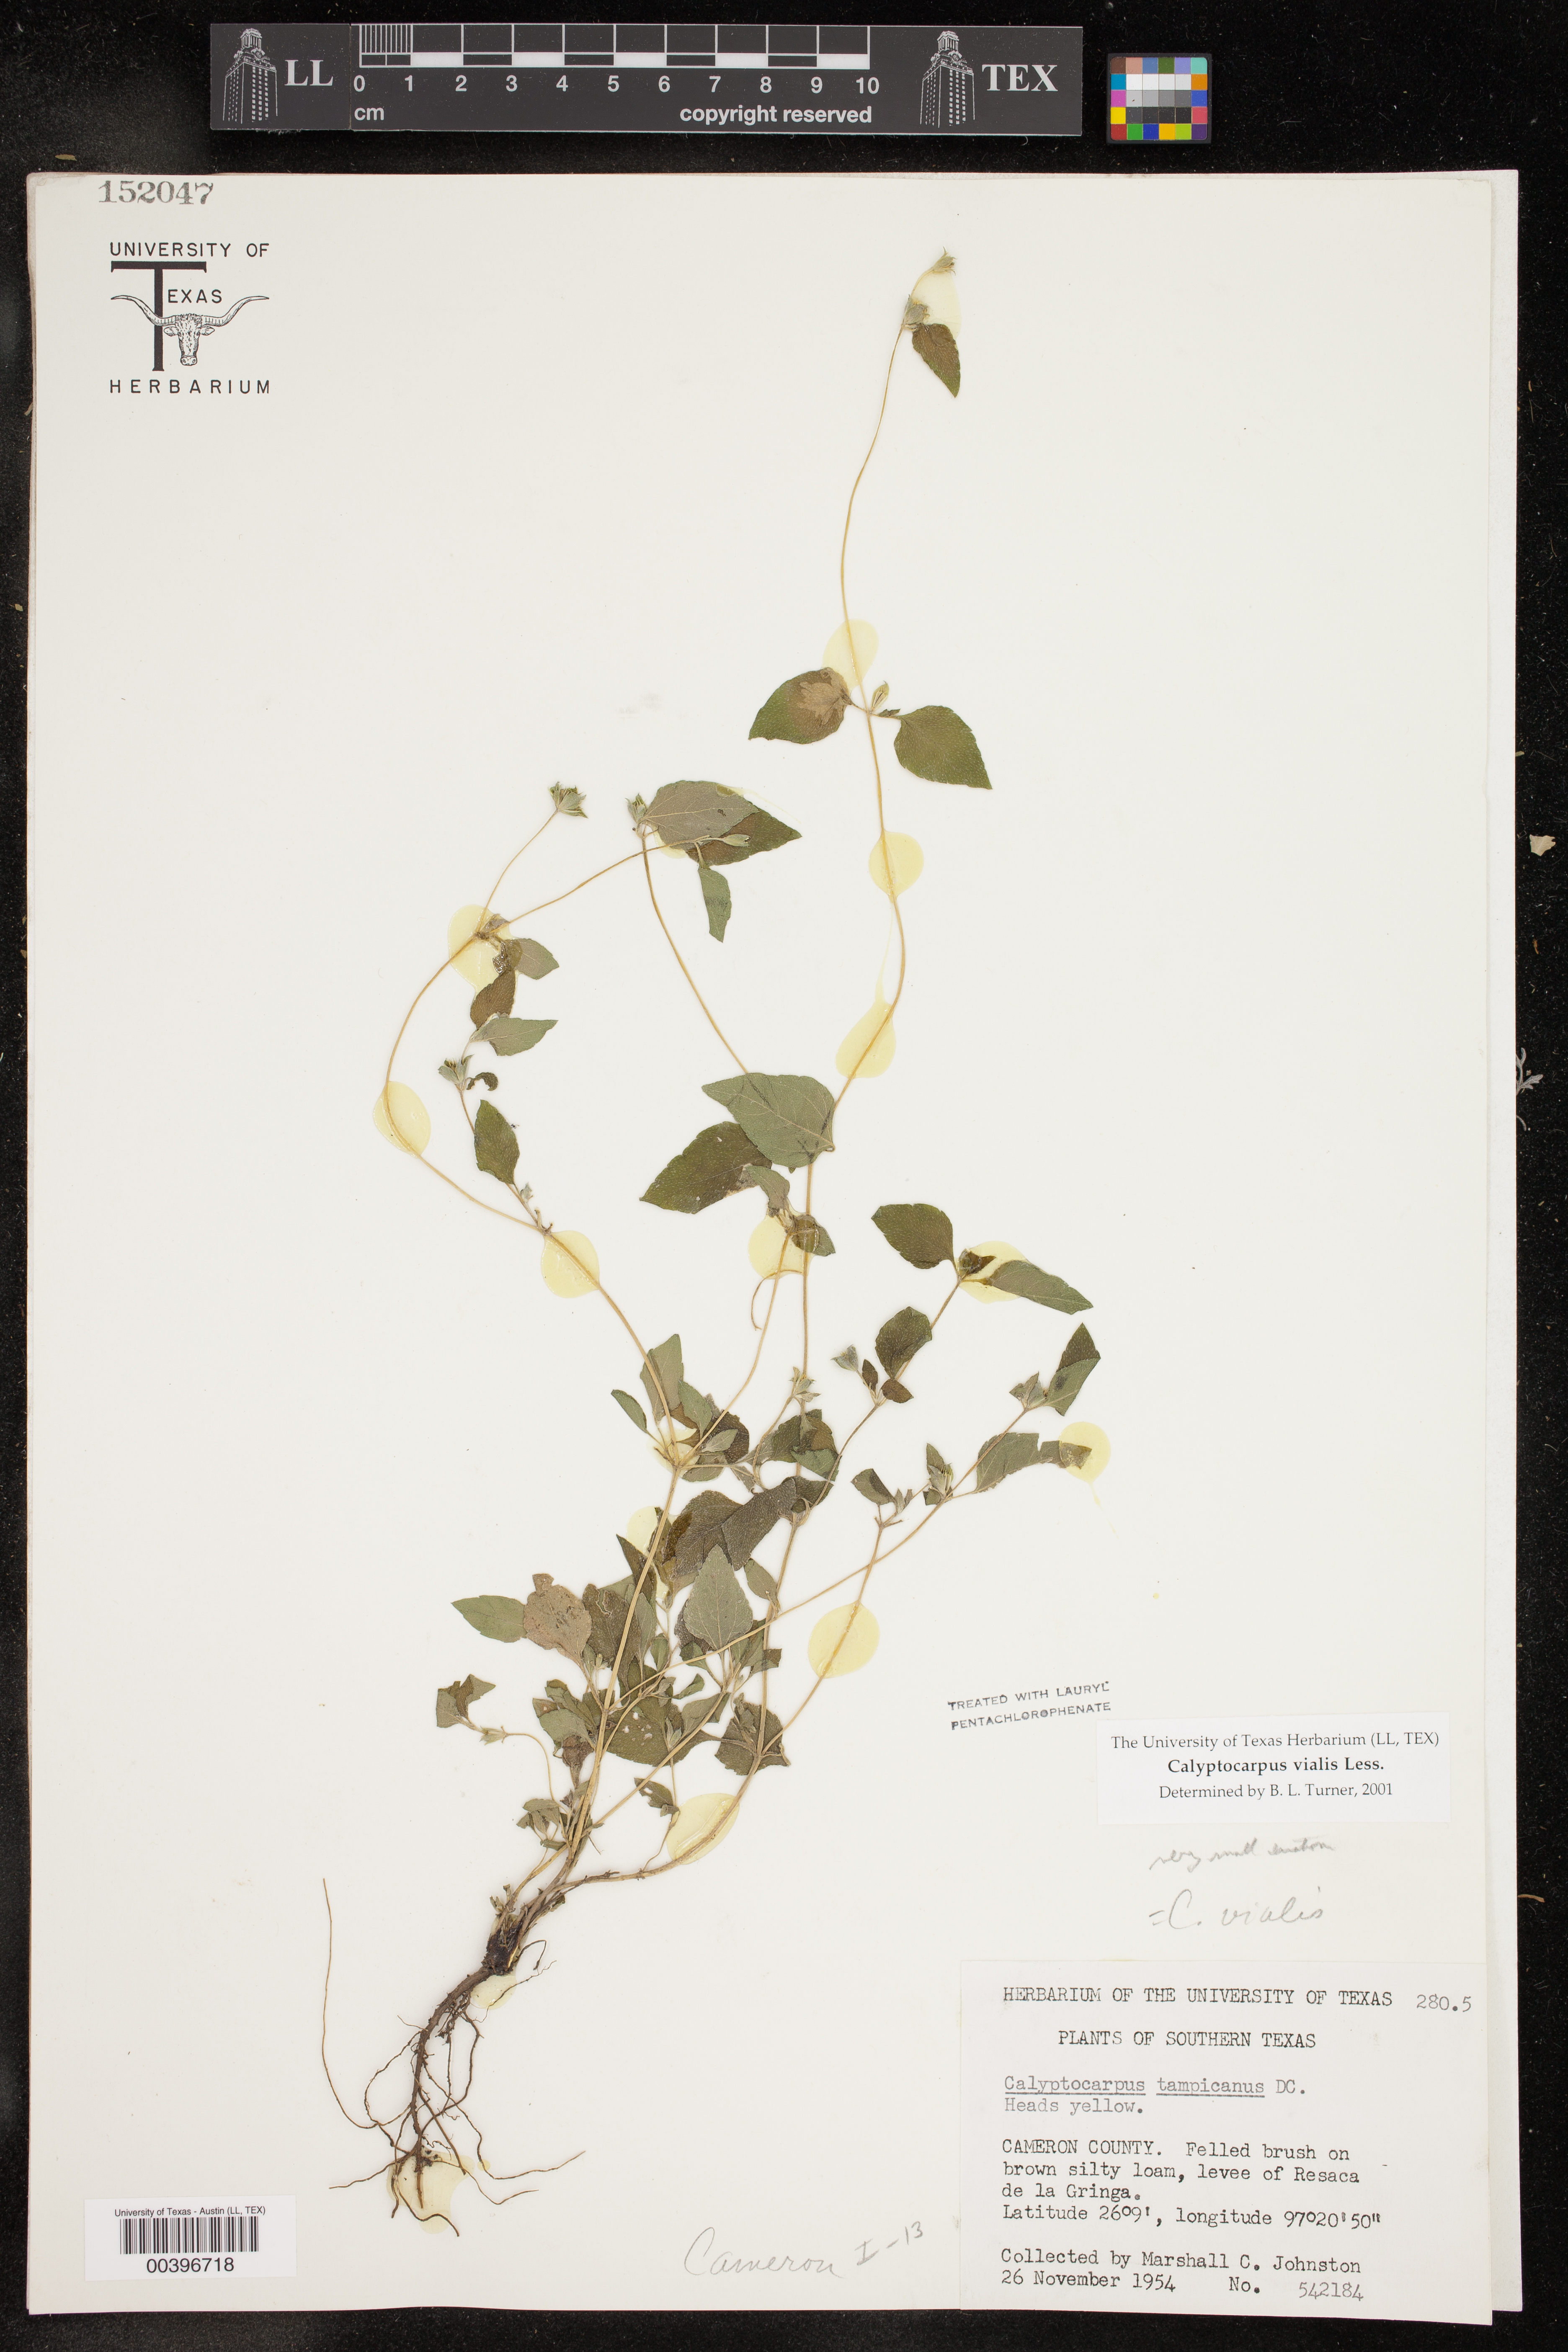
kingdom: Plantae
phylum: Tracheophyta
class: Magnoliopsida
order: Asterales
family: Asteraceae
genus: Calyptocarpus
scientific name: Calyptocarpus vialis
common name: Straggler daisy
